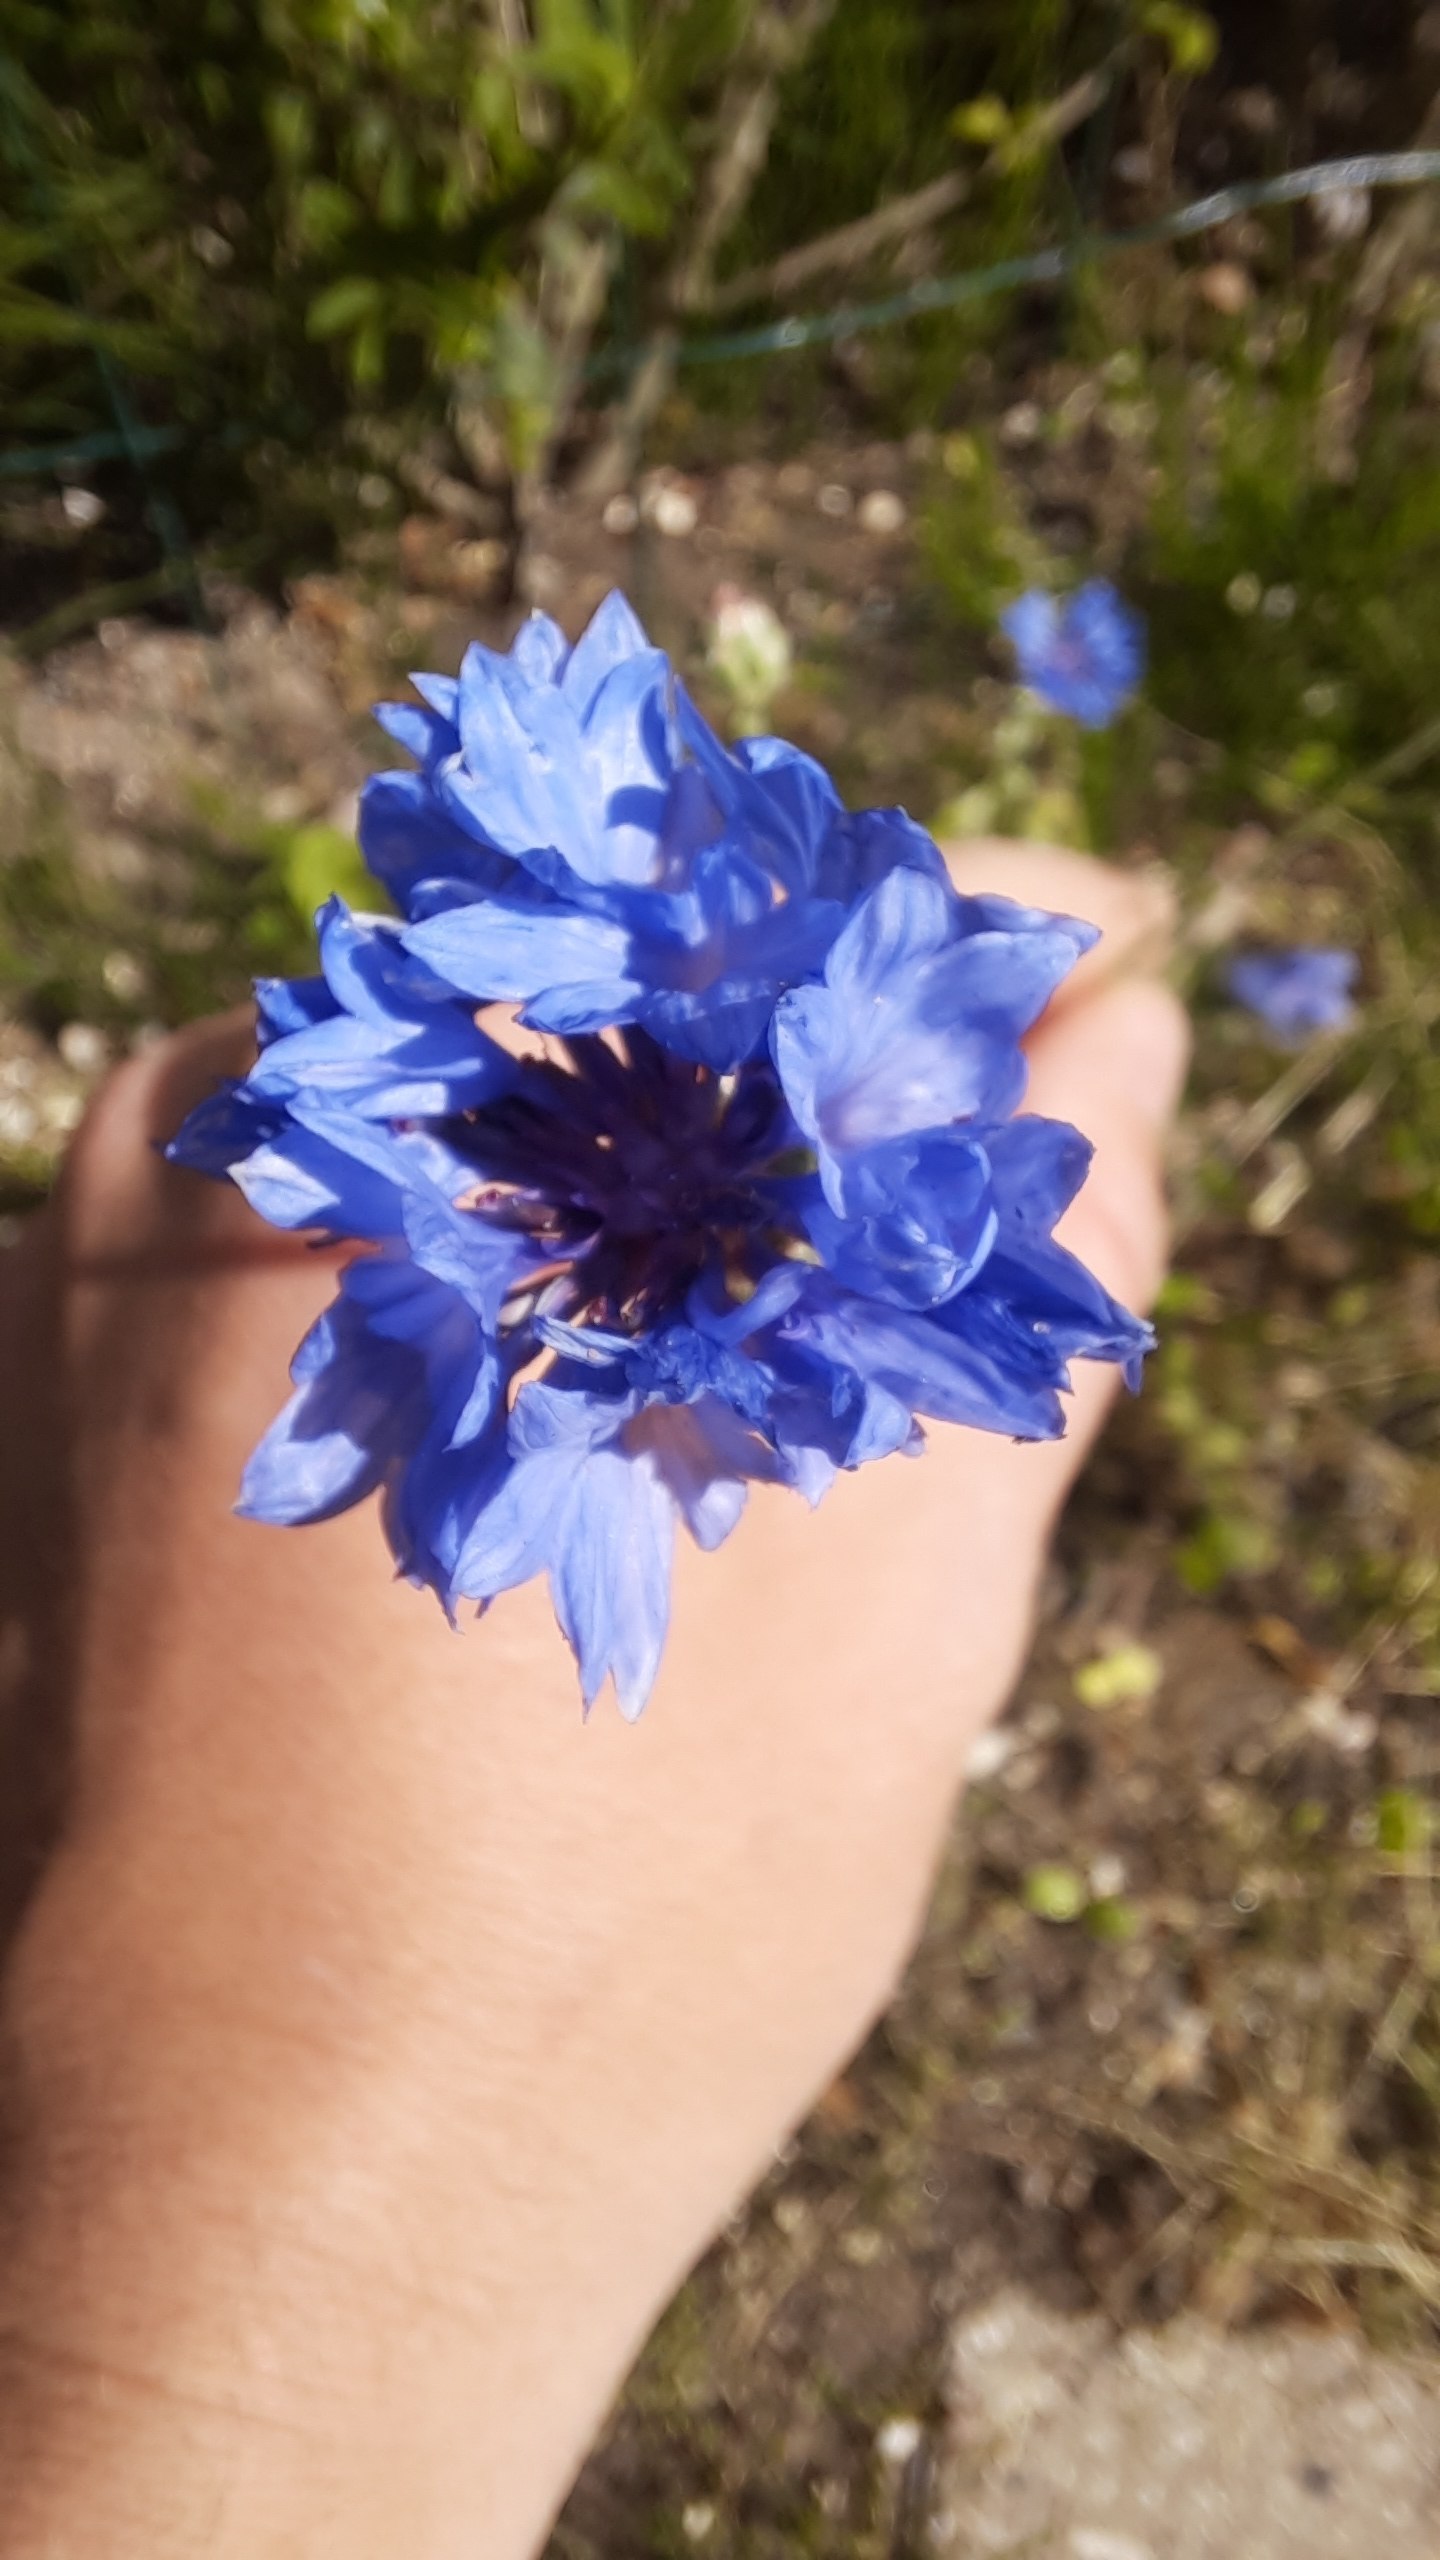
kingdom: Plantae
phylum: Tracheophyta
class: Magnoliopsida
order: Asterales
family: Asteraceae
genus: Centaurea
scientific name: Centaurea cyanus
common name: Kornblomst
